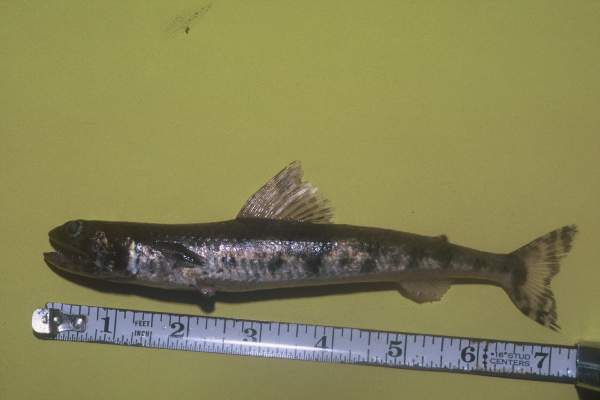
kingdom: Animalia
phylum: Chordata
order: Aulopiformes
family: Synodontidae
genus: Saurida
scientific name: Saurida nebulosa
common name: Nebulous lizardfish
